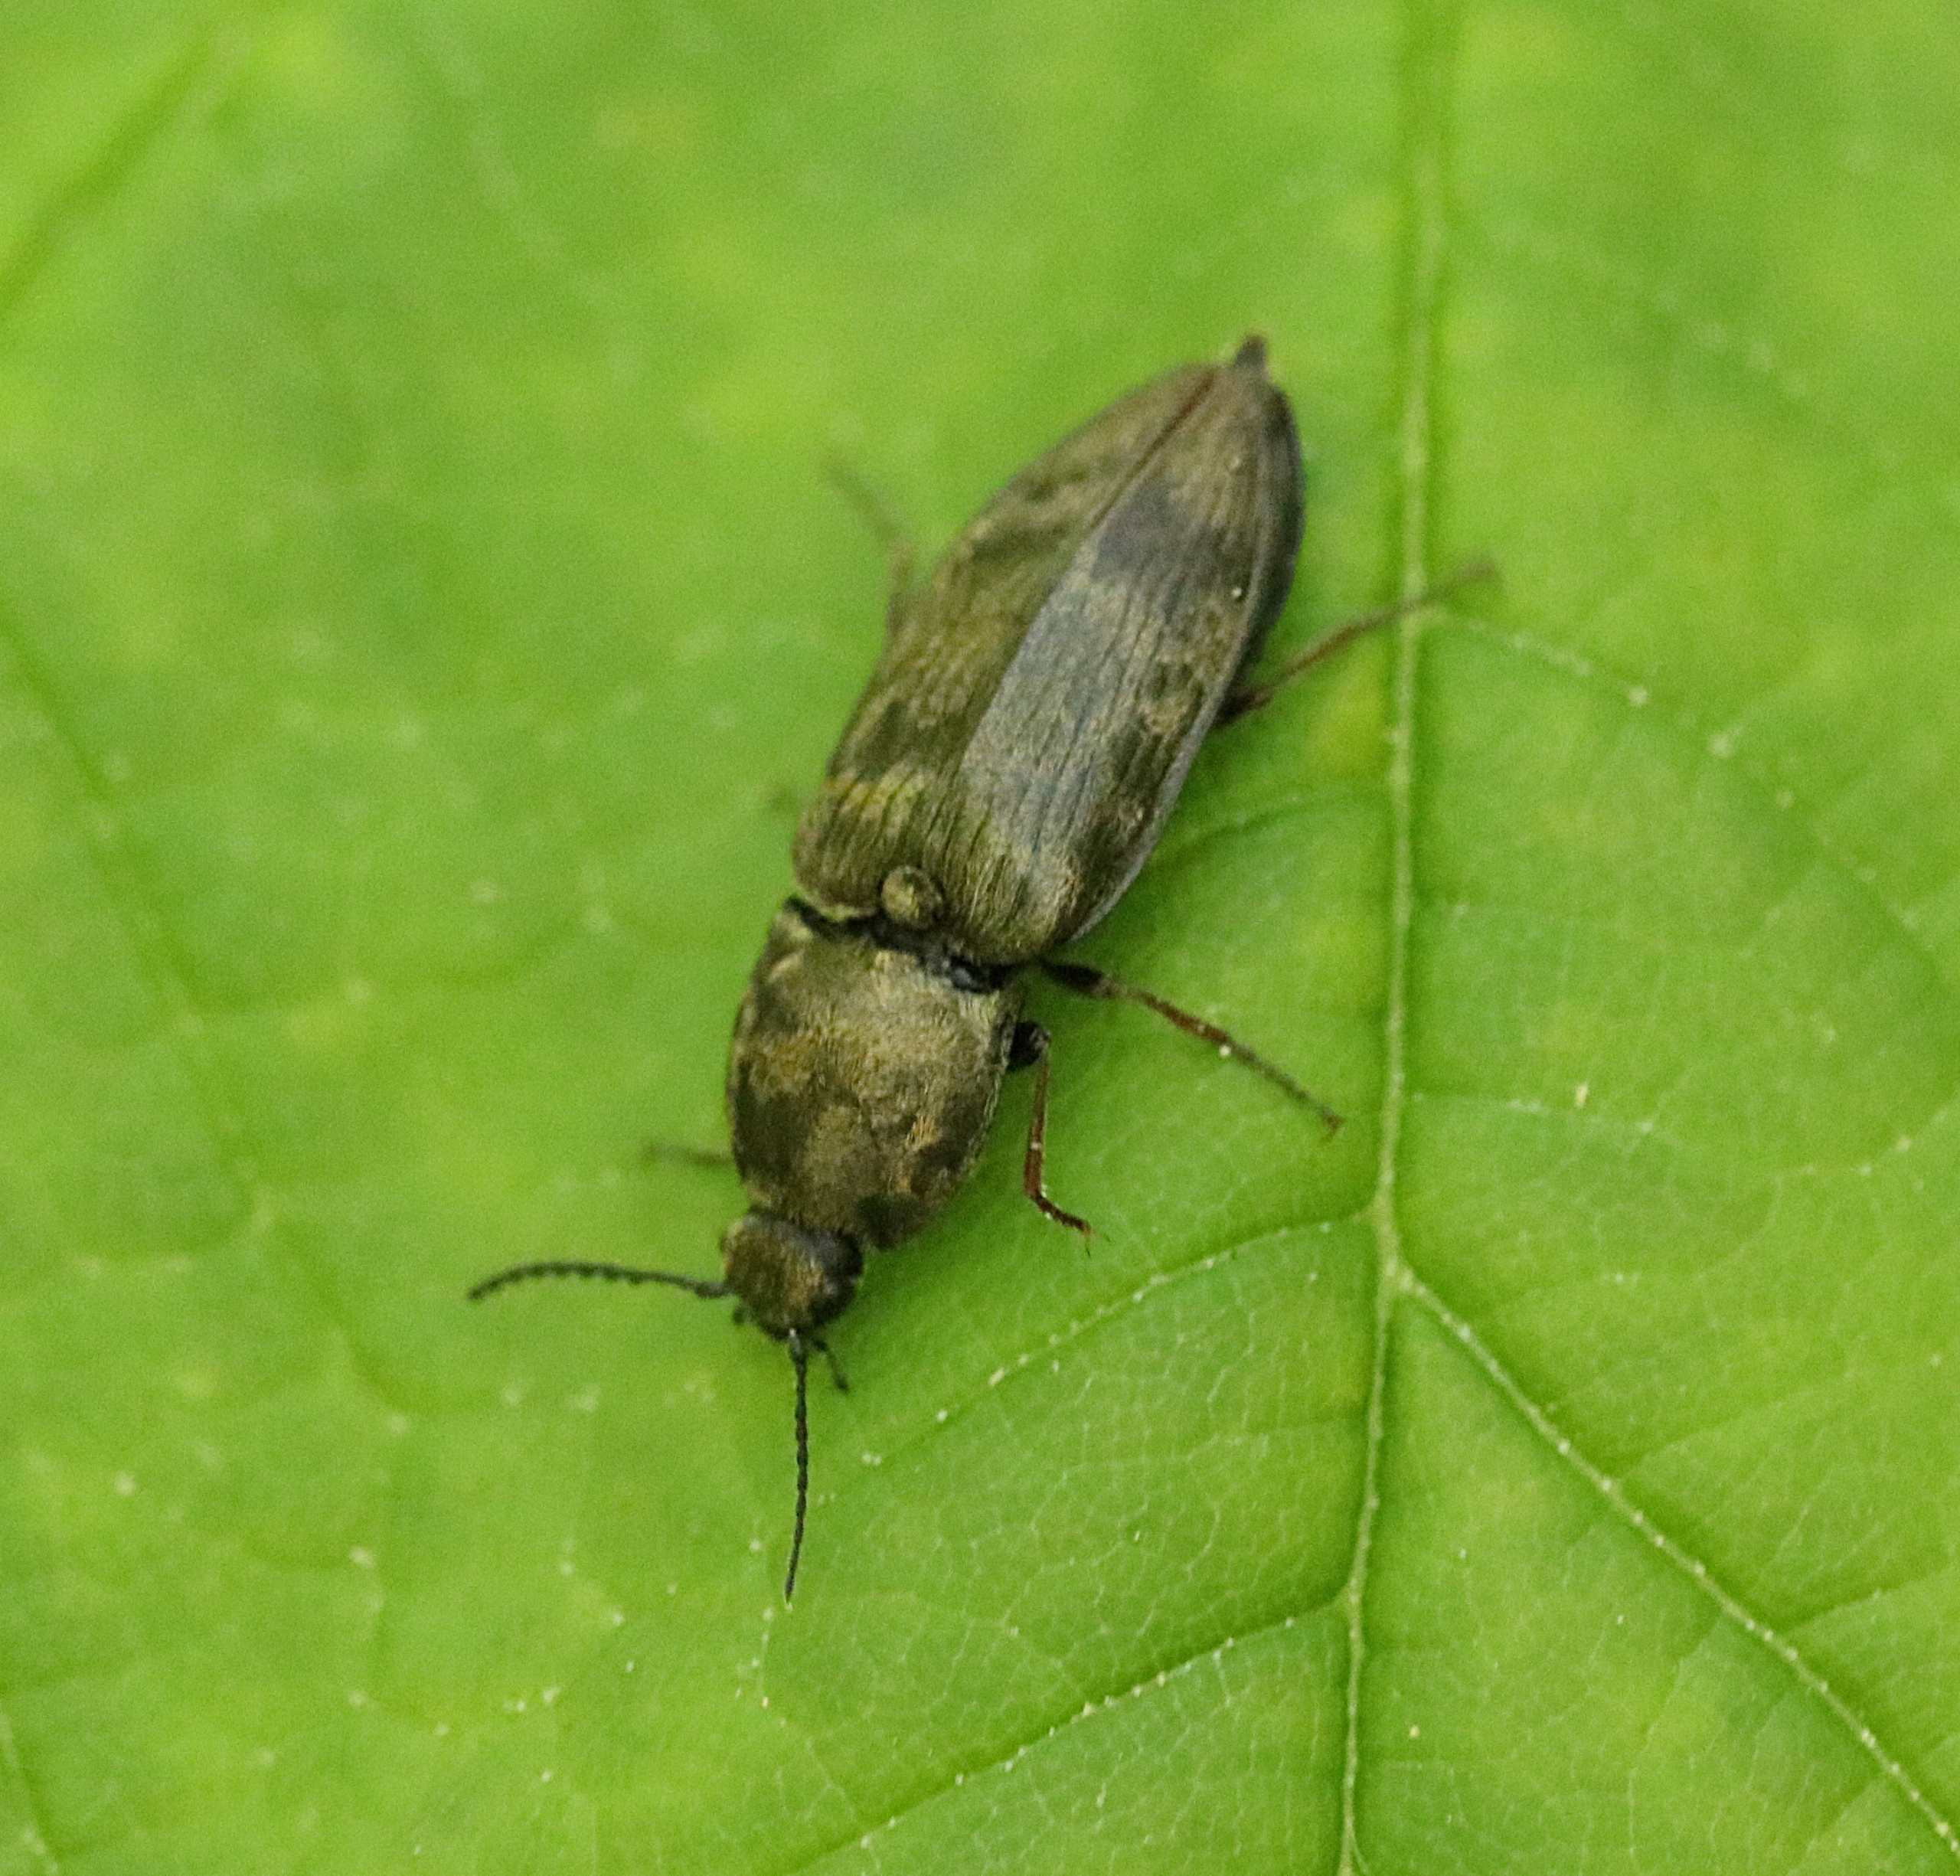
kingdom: Animalia
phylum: Arthropoda
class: Insecta
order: Coleoptera
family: Elateridae
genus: Prosternon
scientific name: Prosternon tessellatum
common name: Silkeglinsende jordsmælder
